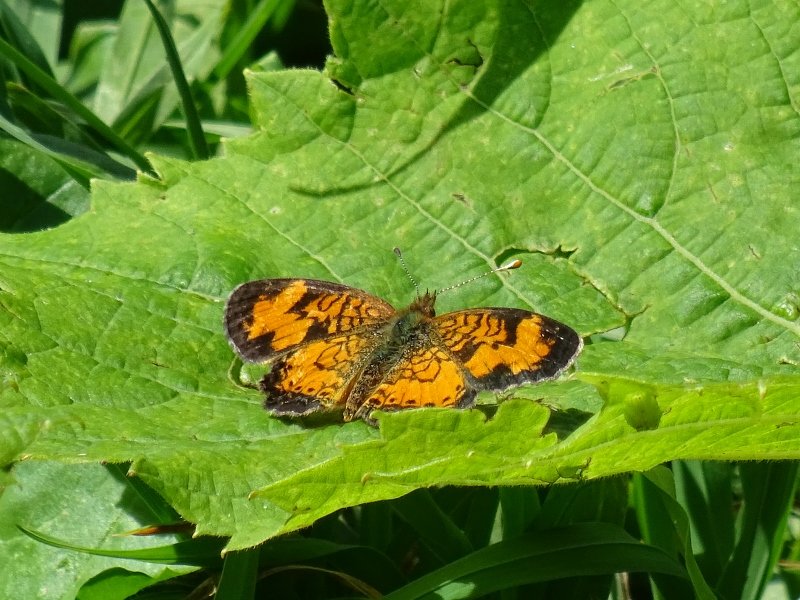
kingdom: Animalia
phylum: Arthropoda
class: Insecta
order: Lepidoptera
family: Nymphalidae
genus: Phyciodes
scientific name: Phyciodes tharos
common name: Northern Crescent
